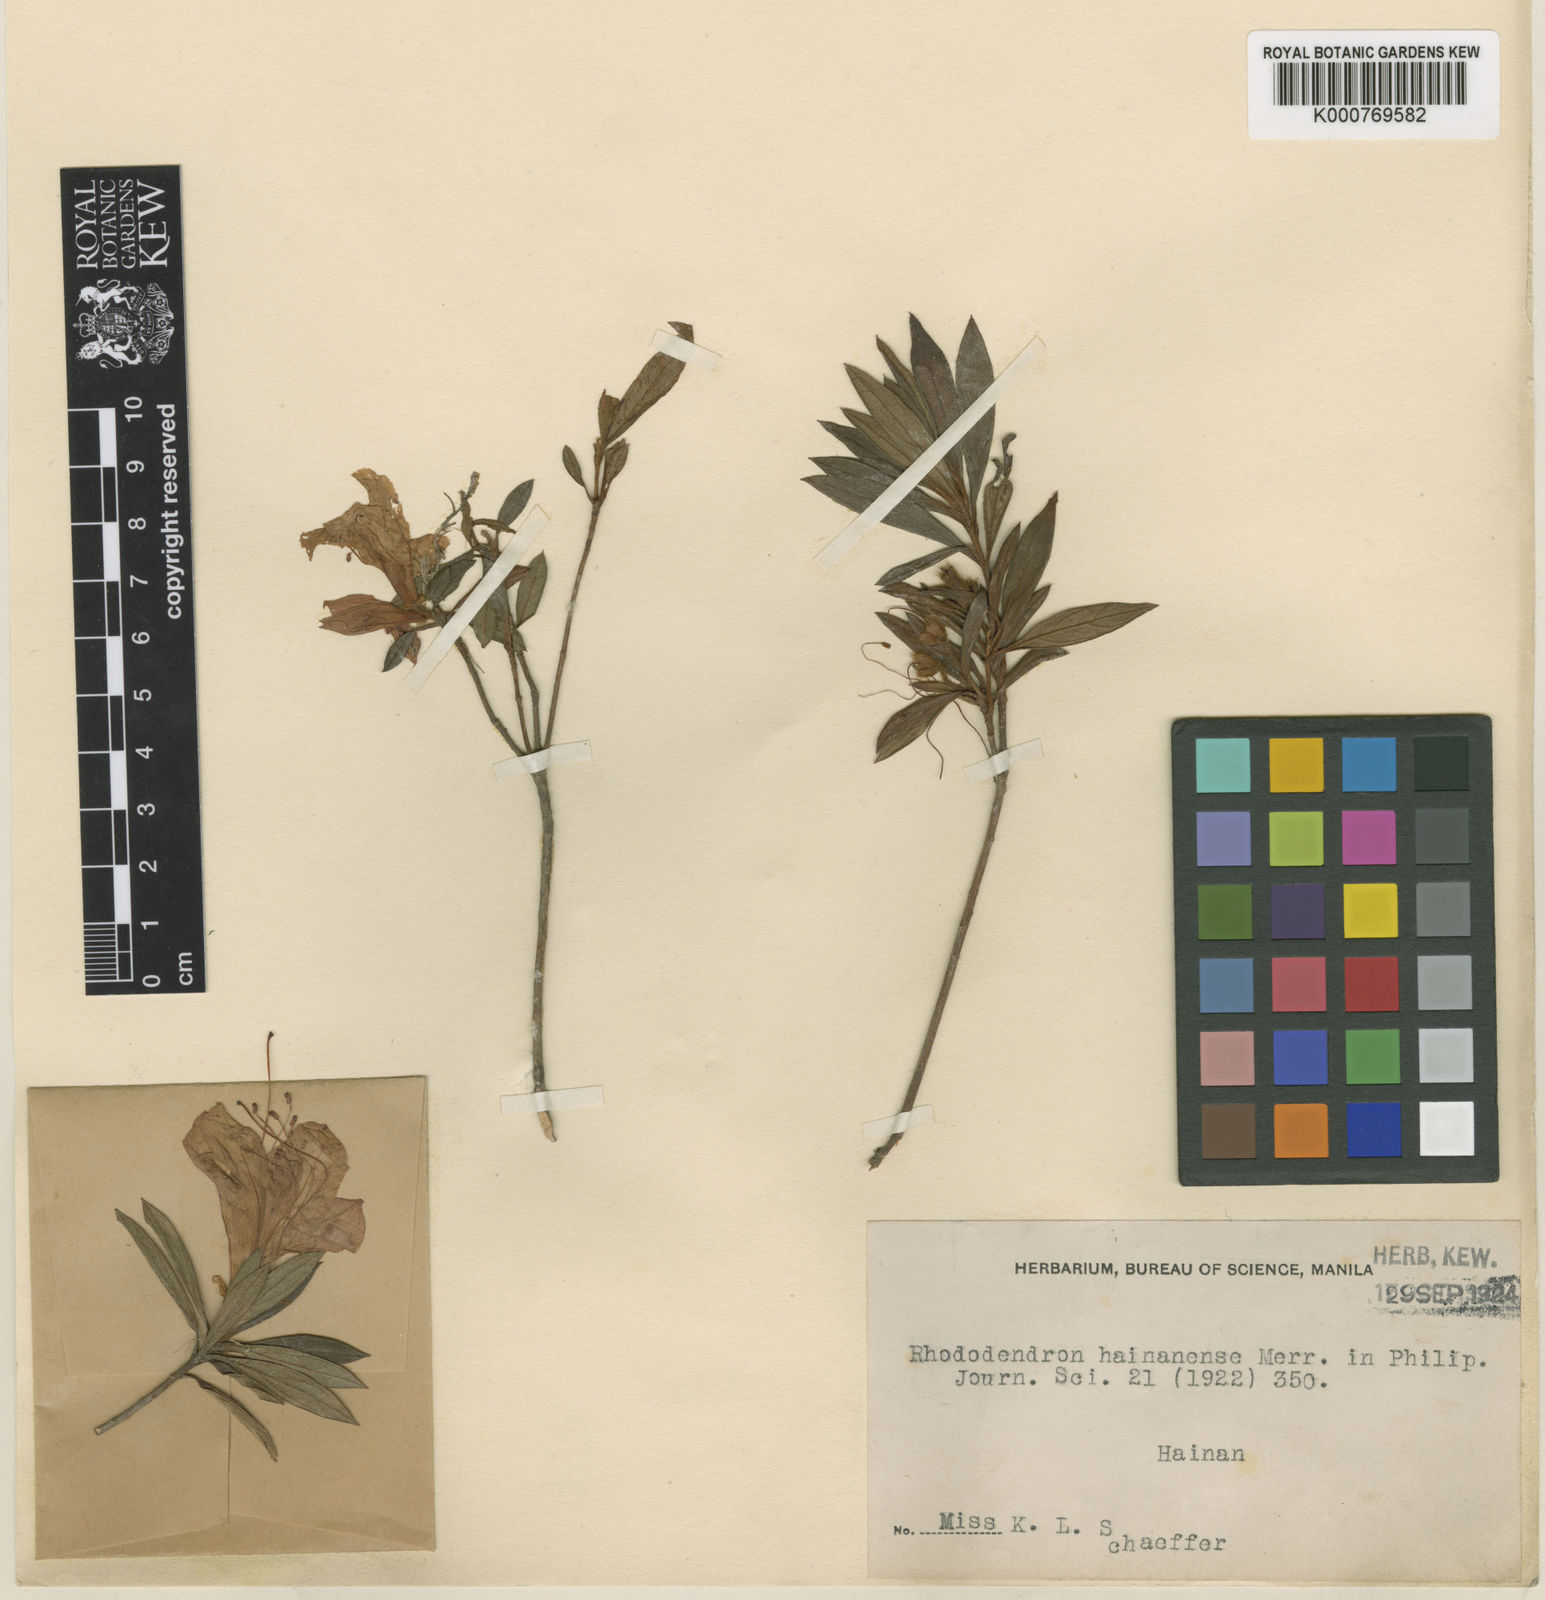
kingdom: Plantae
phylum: Tracheophyta
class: Magnoliopsida
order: Ericales
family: Ericaceae
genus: Rhododendron
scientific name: Rhododendron hainanense
